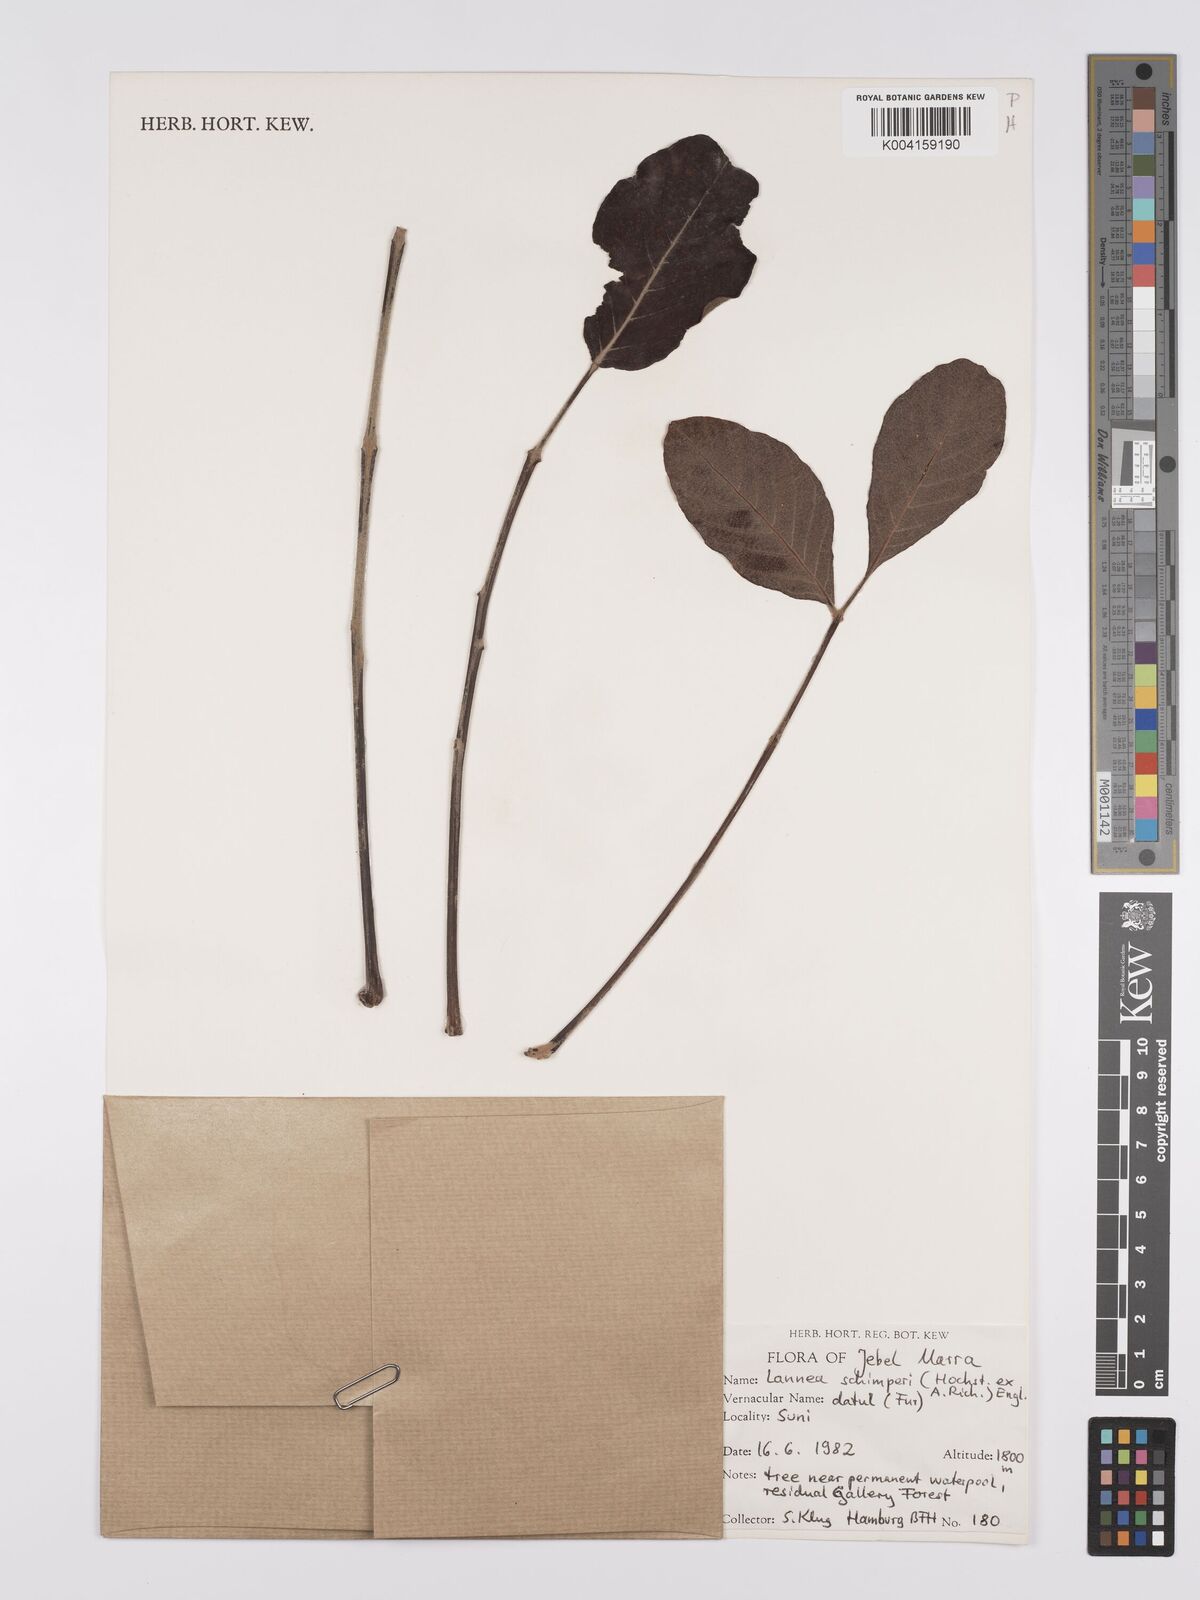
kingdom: Plantae
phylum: Tracheophyta
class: Magnoliopsida
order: Sapindales
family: Anacardiaceae
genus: Lannea
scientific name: Lannea schimperi
